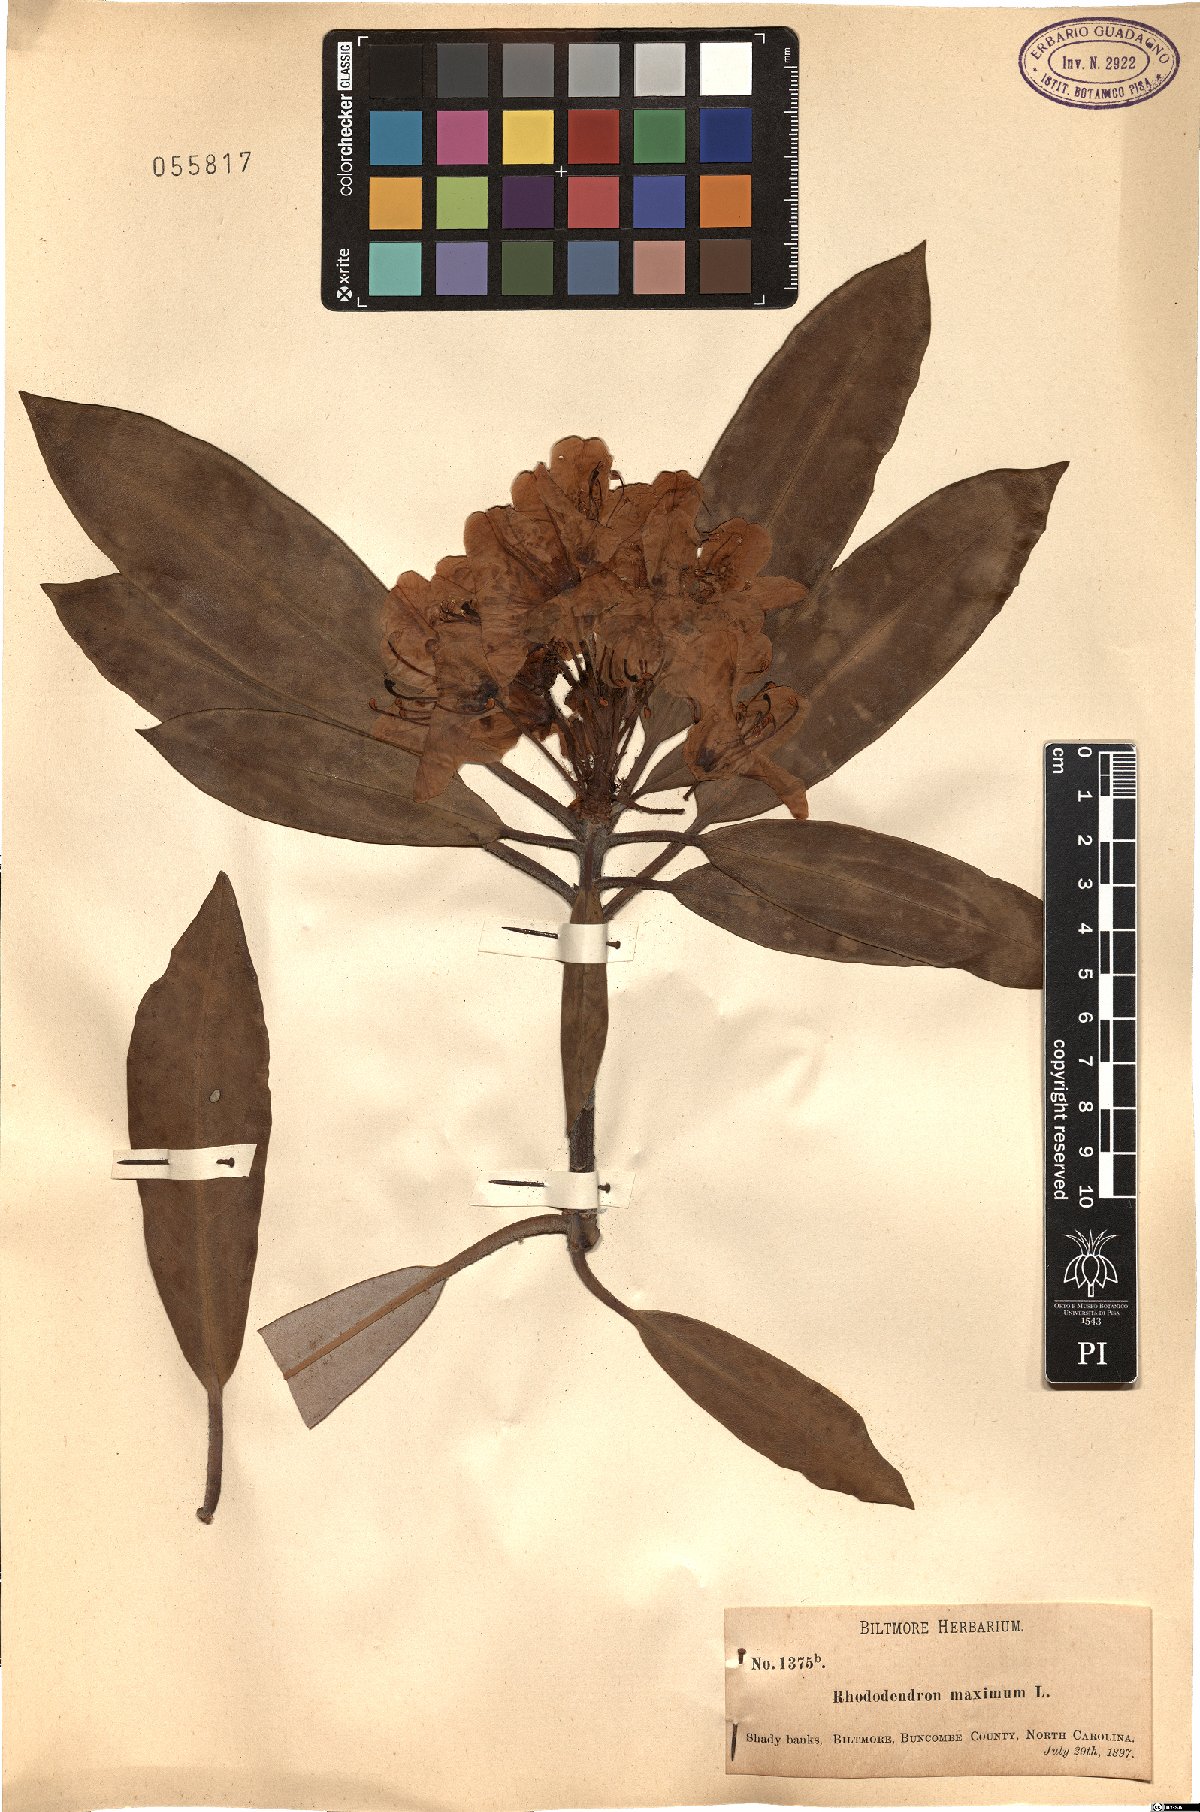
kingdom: Plantae
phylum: Tracheophyta
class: Magnoliopsida
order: Ericales
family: Ericaceae
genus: Rhododendron
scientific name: Rhododendron maximum
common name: Great rhododendron
